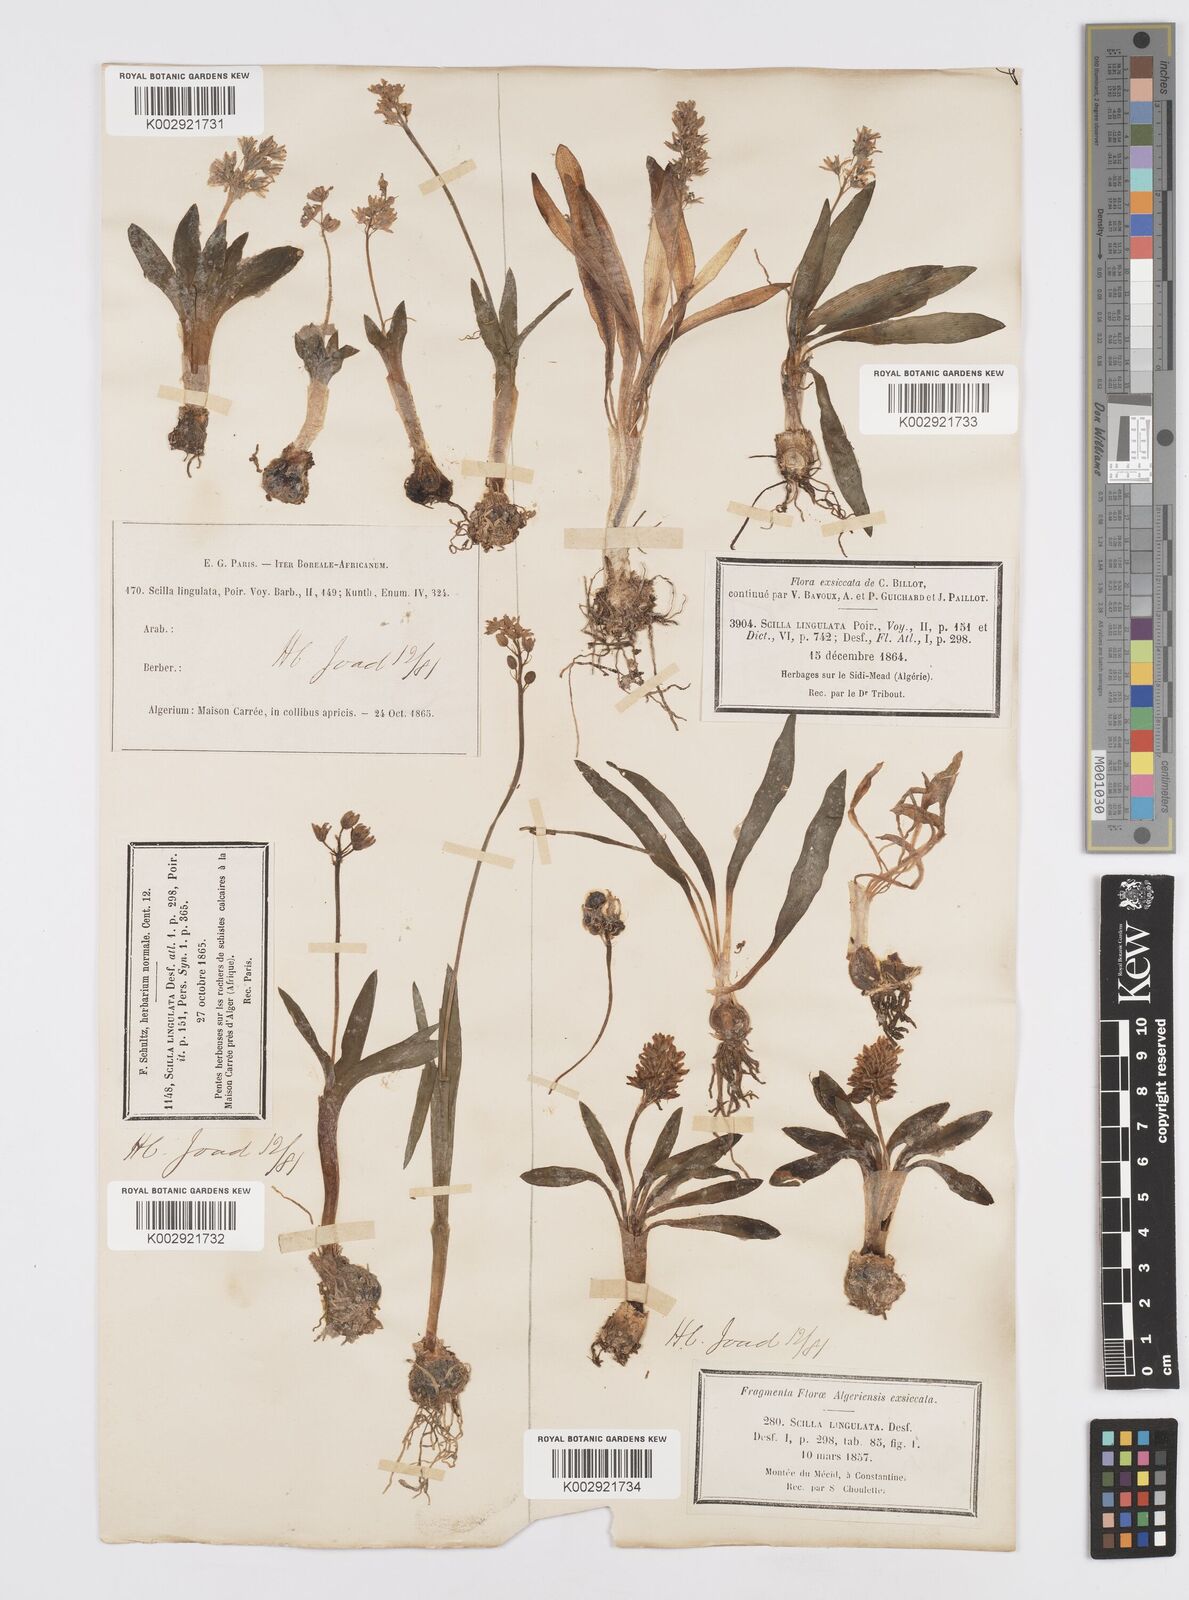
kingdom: Plantae
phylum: Tracheophyta
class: Liliopsida
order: Asparagales
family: Asparagaceae
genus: Hyacinthoides
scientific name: Hyacinthoides lingulata
